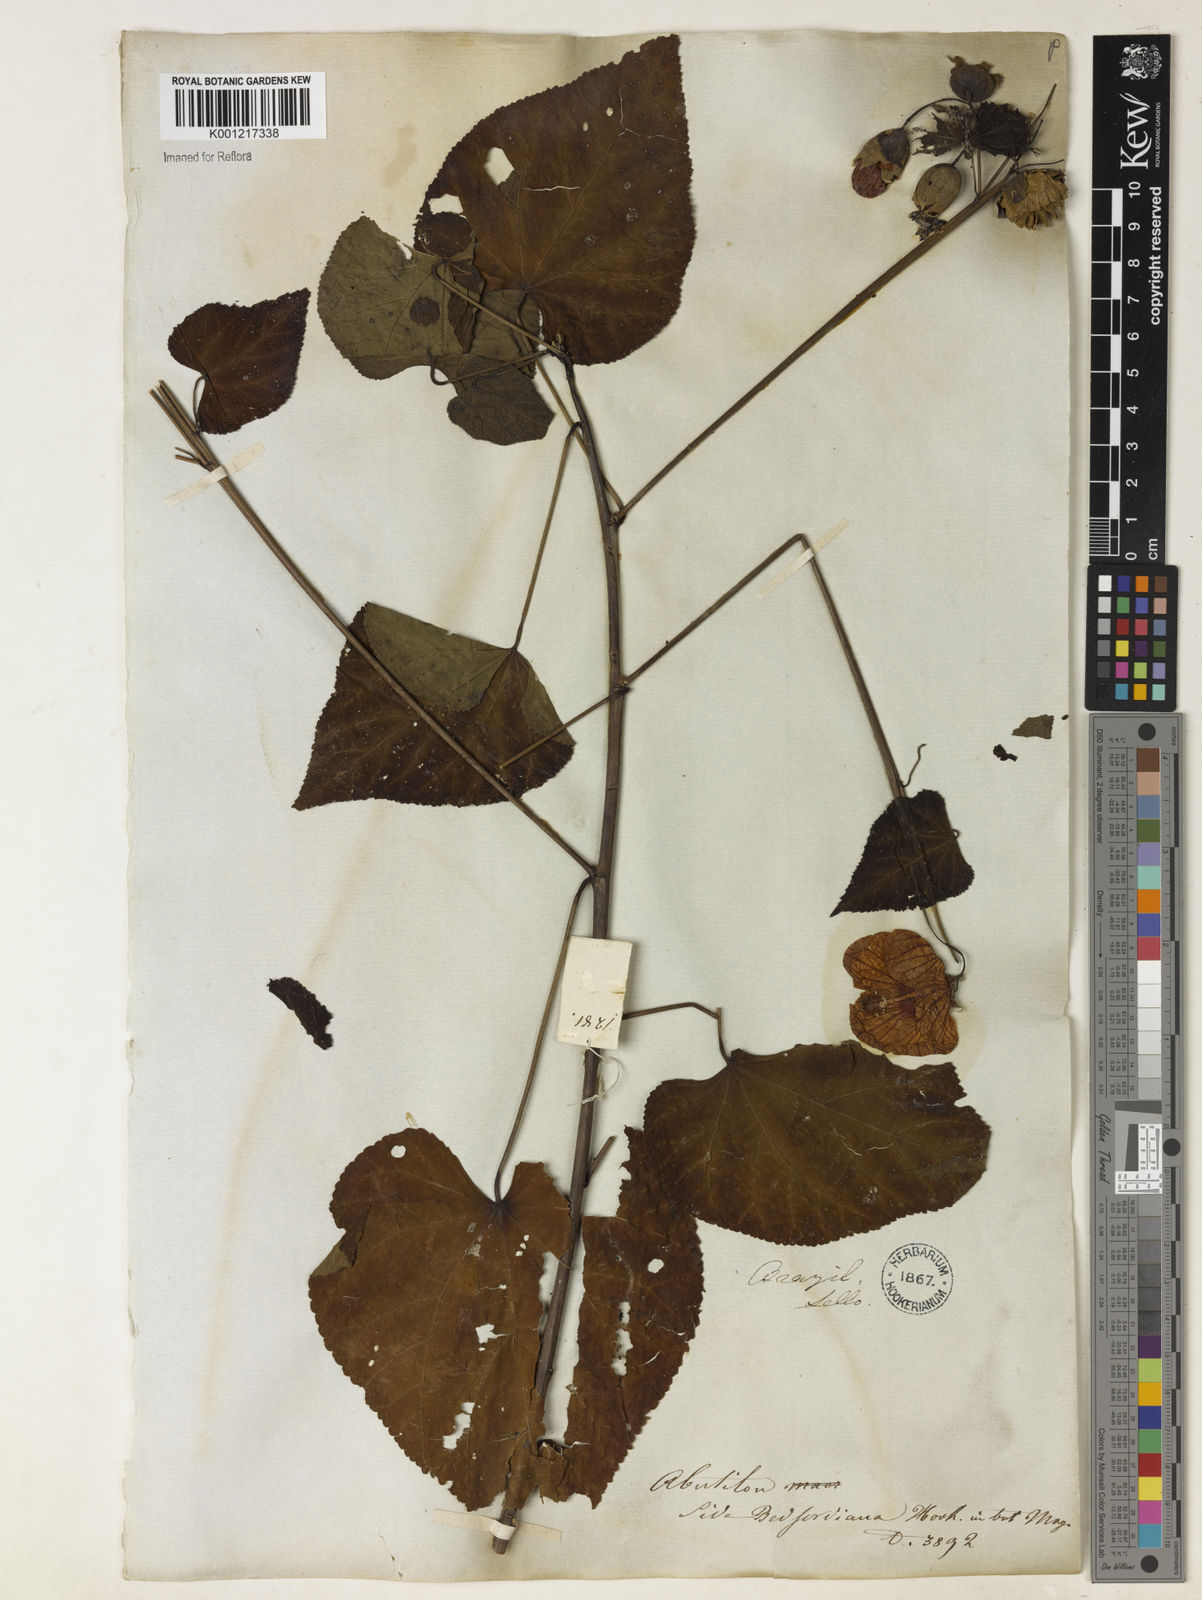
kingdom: Plantae
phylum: Tracheophyta
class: Magnoliopsida
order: Malvales
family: Malvaceae
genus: Callianthe
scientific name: Callianthe bedfordiana
